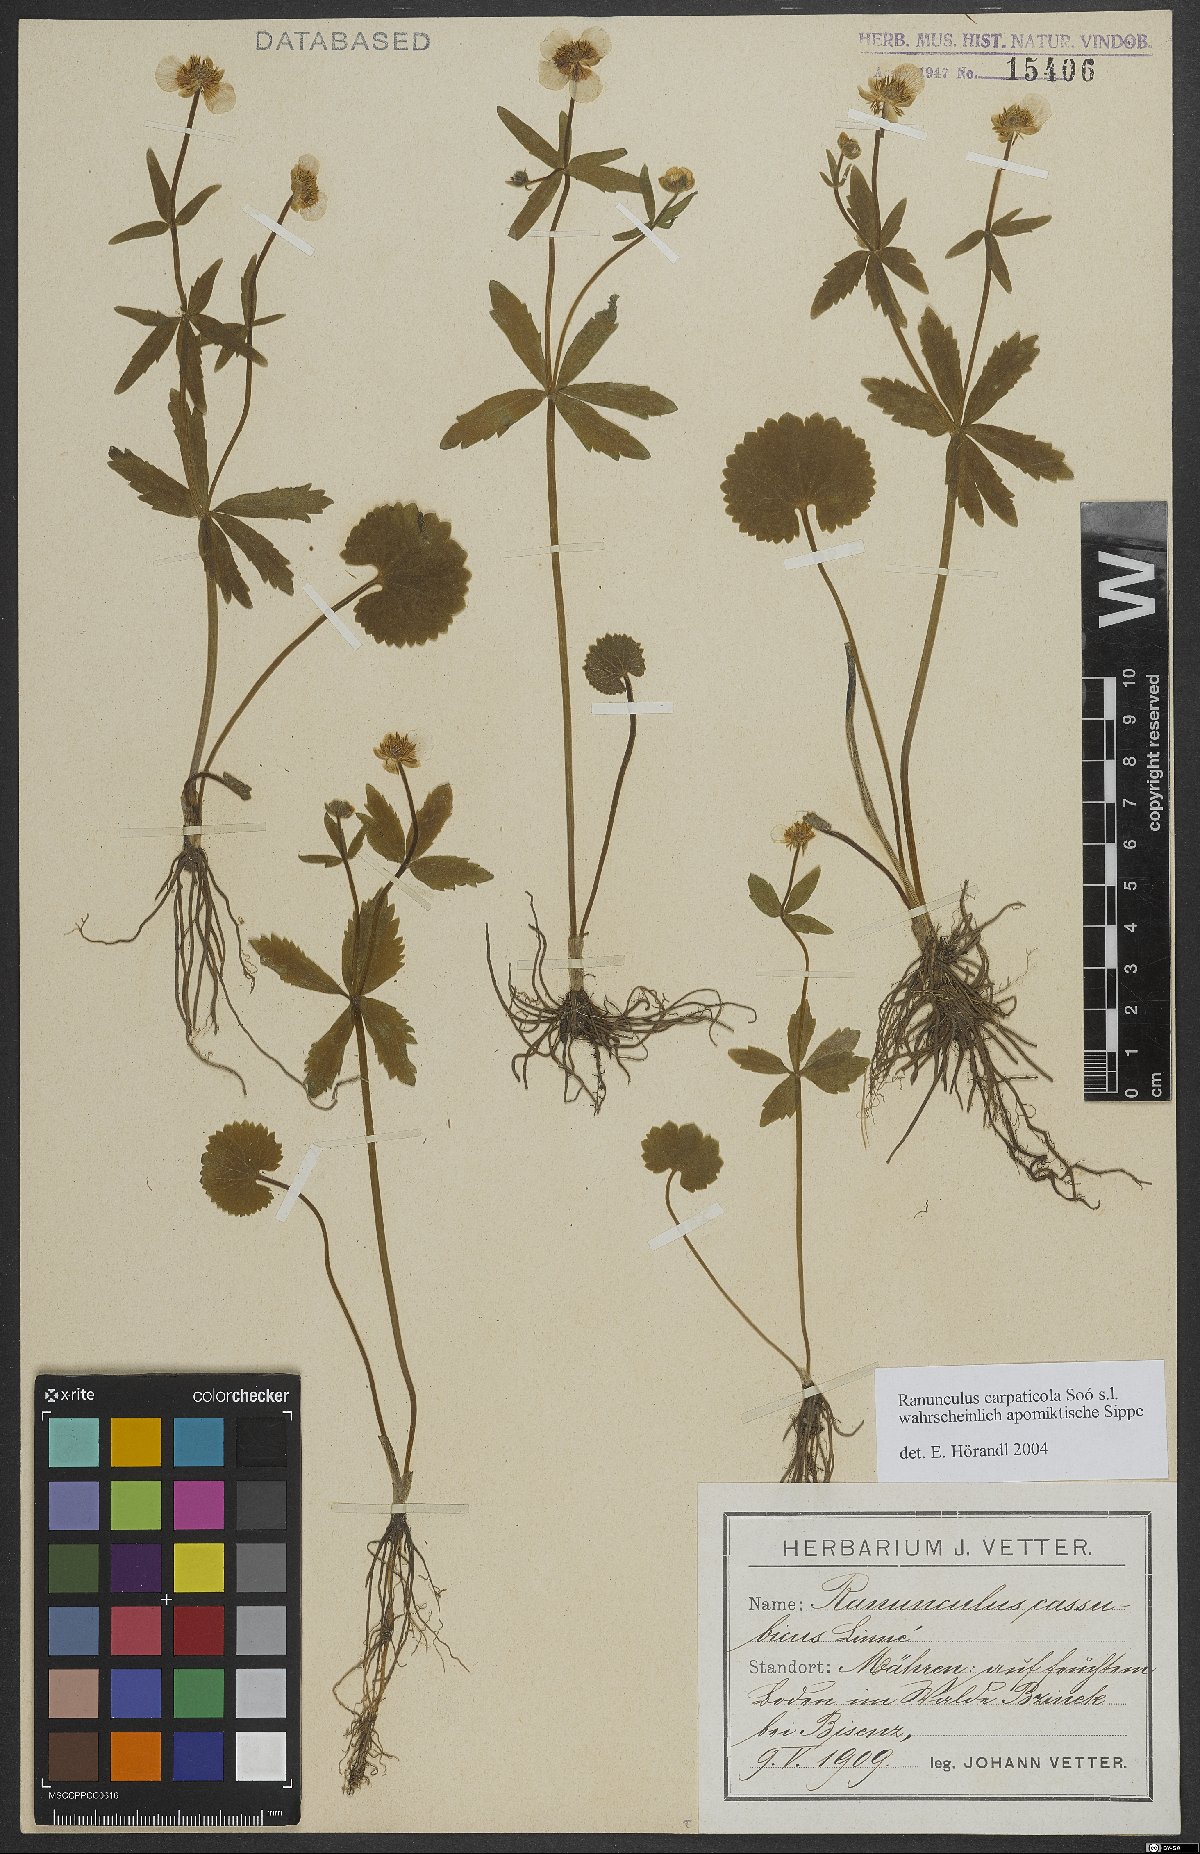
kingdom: Plantae
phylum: Tracheophyta
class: Magnoliopsida
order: Ranunculales
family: Ranunculaceae
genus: Ranunculus
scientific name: Ranunculus cassubicifolius
